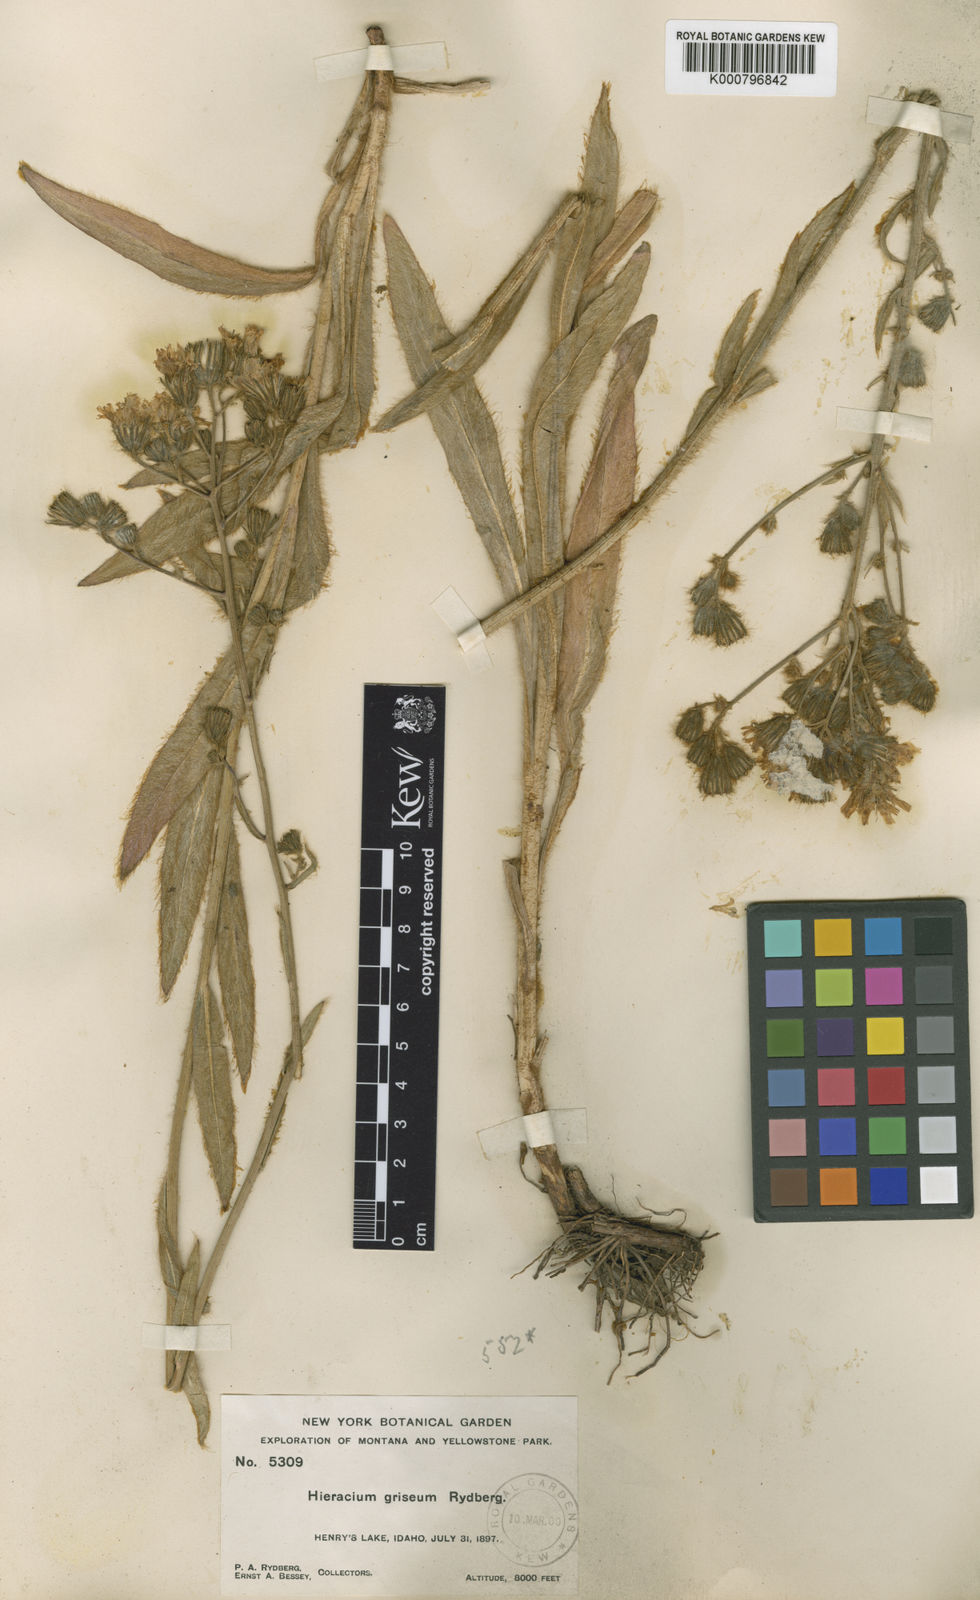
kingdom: Plantae
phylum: Tracheophyta
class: Magnoliopsida
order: Asterales
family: Asteraceae
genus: Hieracium
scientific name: Hieracium rydbergii
